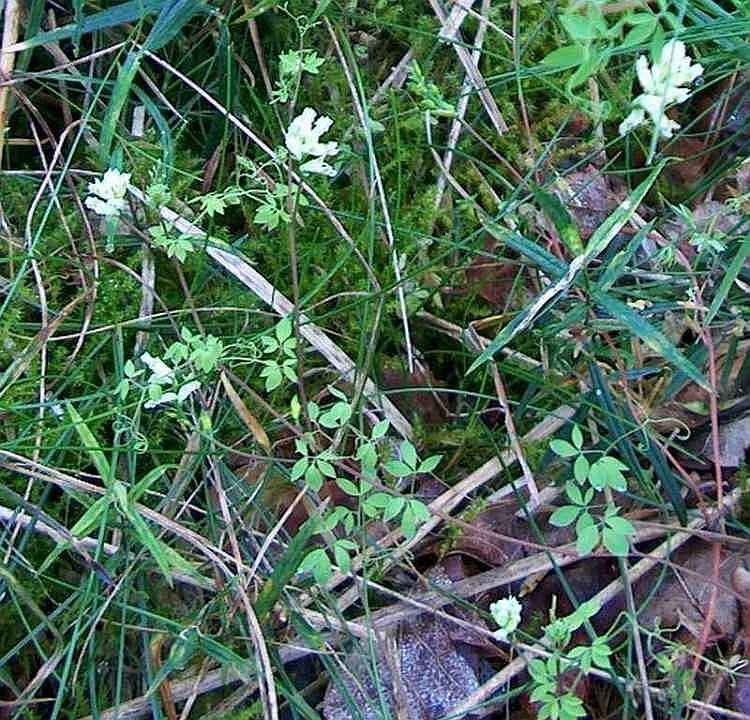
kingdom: Plantae
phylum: Tracheophyta
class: Magnoliopsida
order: Ranunculales
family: Papaveraceae
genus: Ceratocapnos
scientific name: Ceratocapnos claviculata
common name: Klatrende lærkespore
